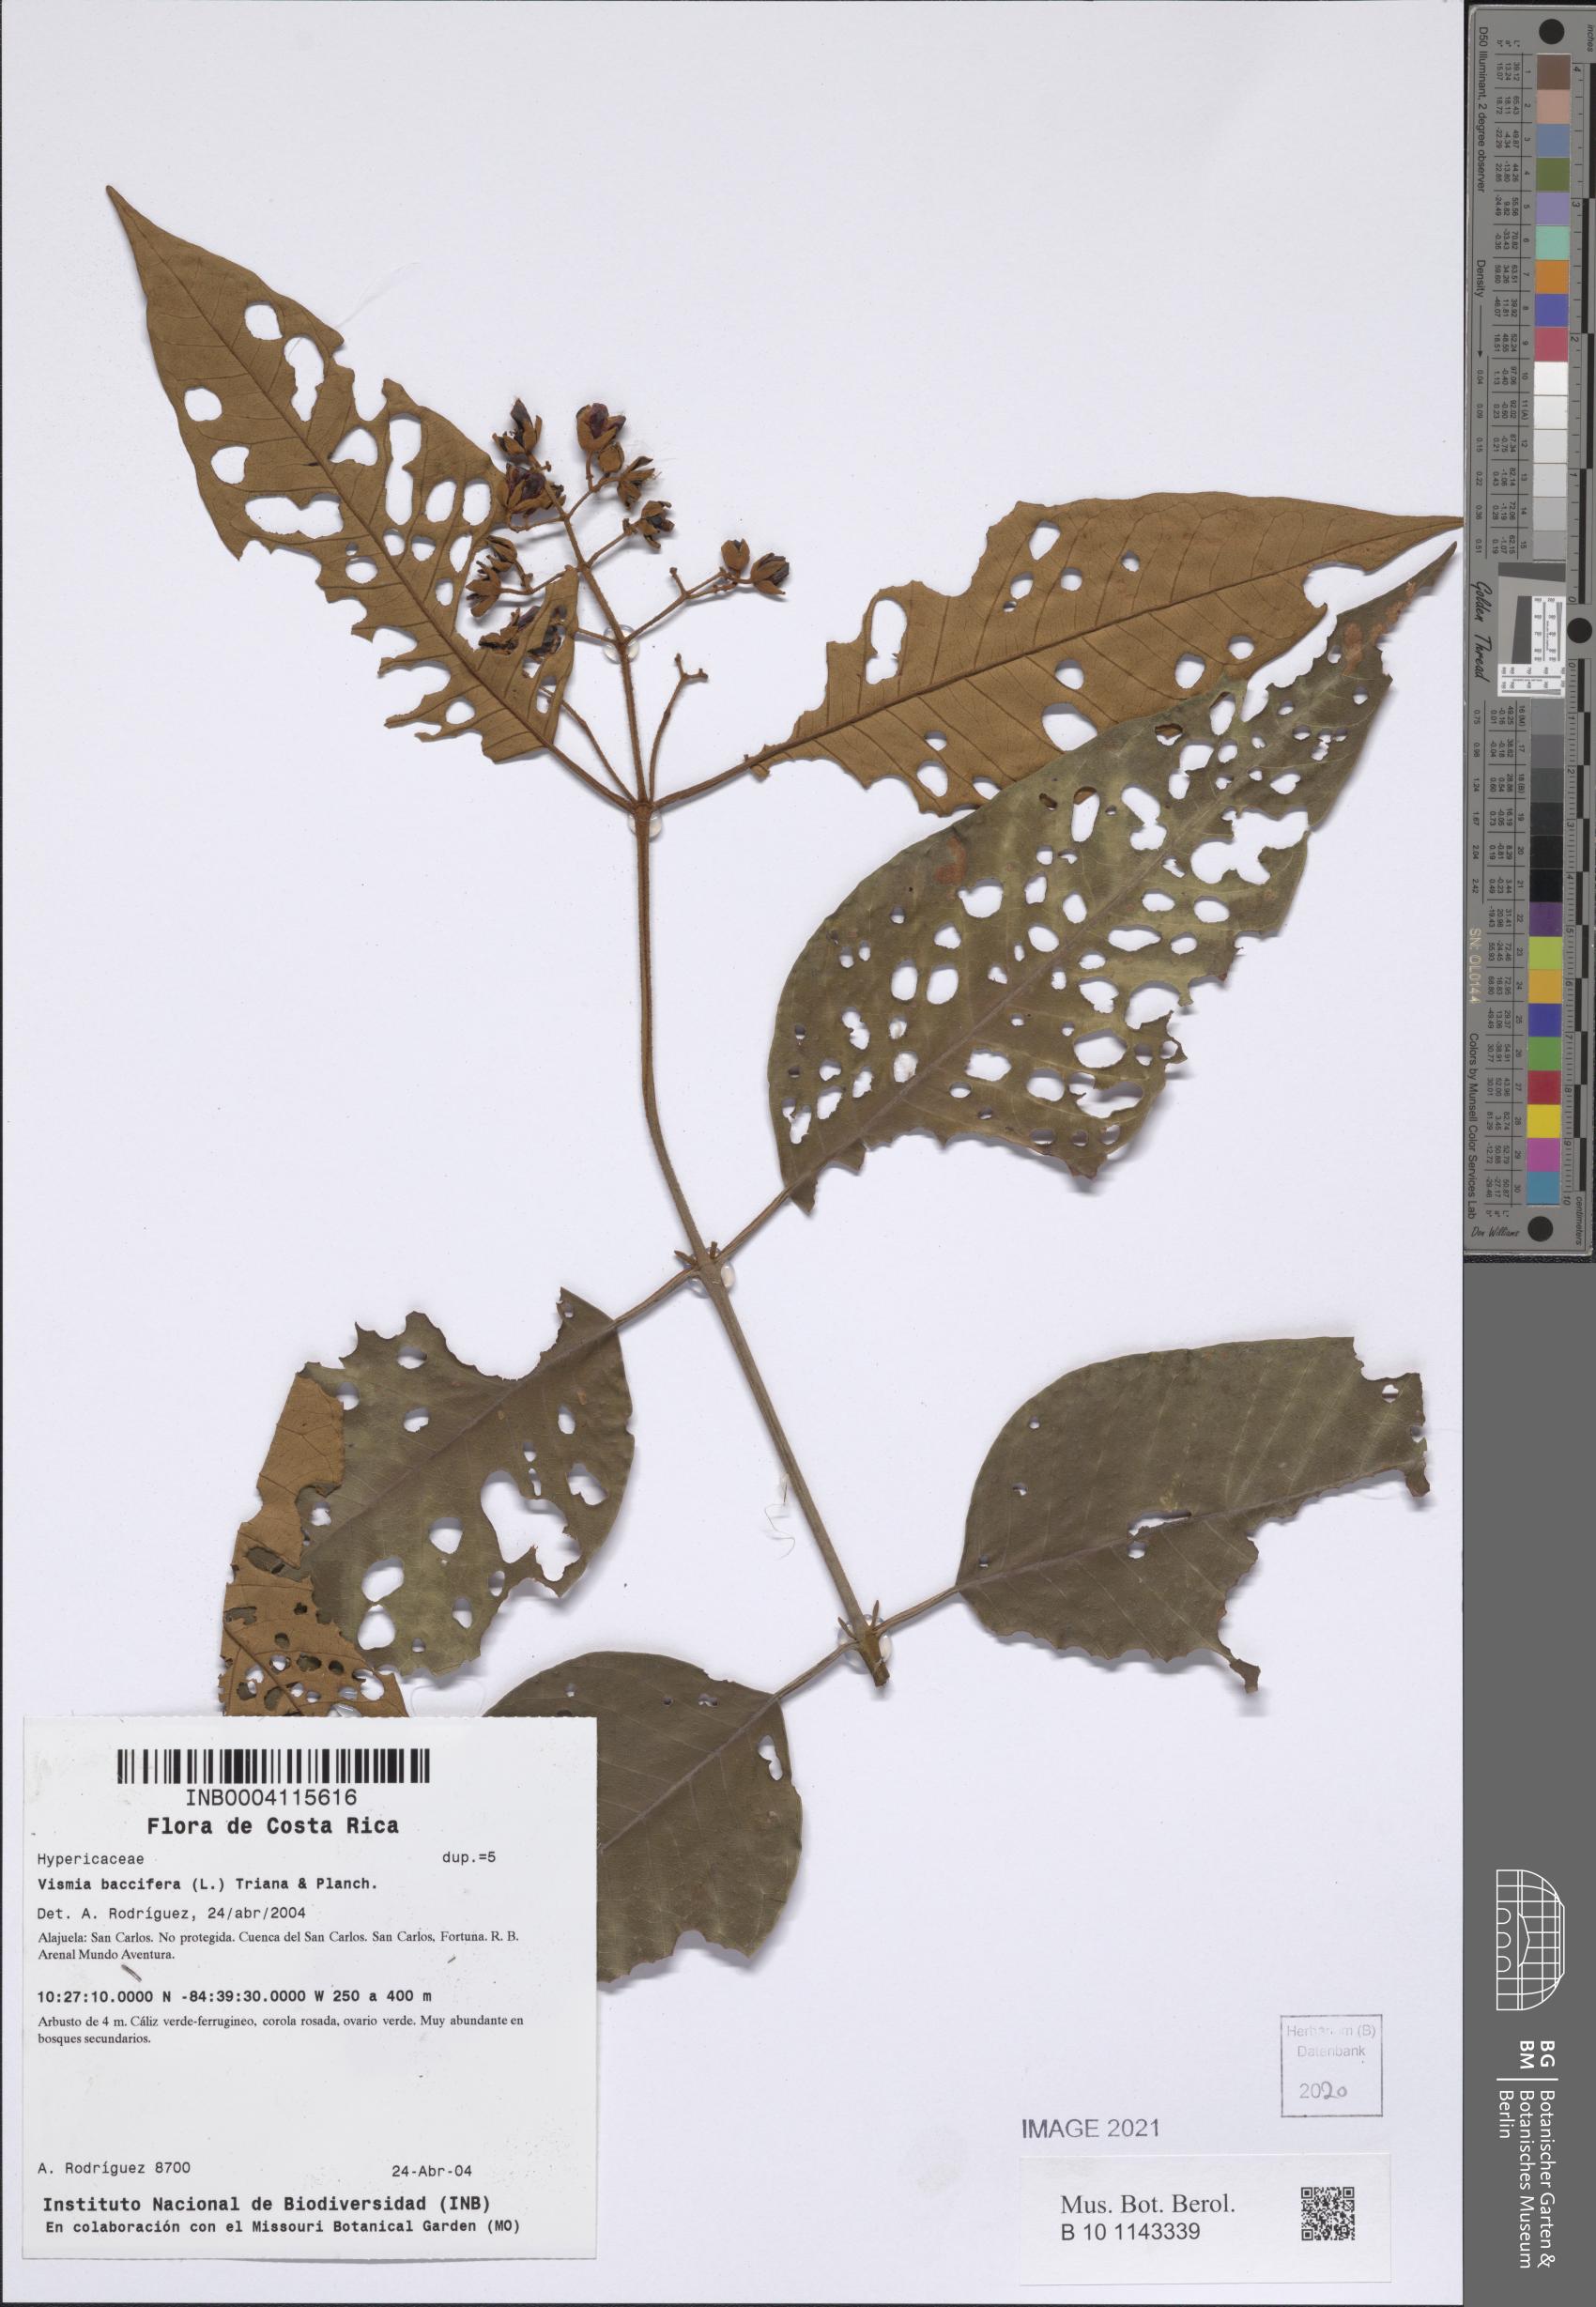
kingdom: Plantae
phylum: Tracheophyta
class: Magnoliopsida
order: Malpighiales
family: Hypericaceae
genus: Vismia
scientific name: Vismia baccifera
